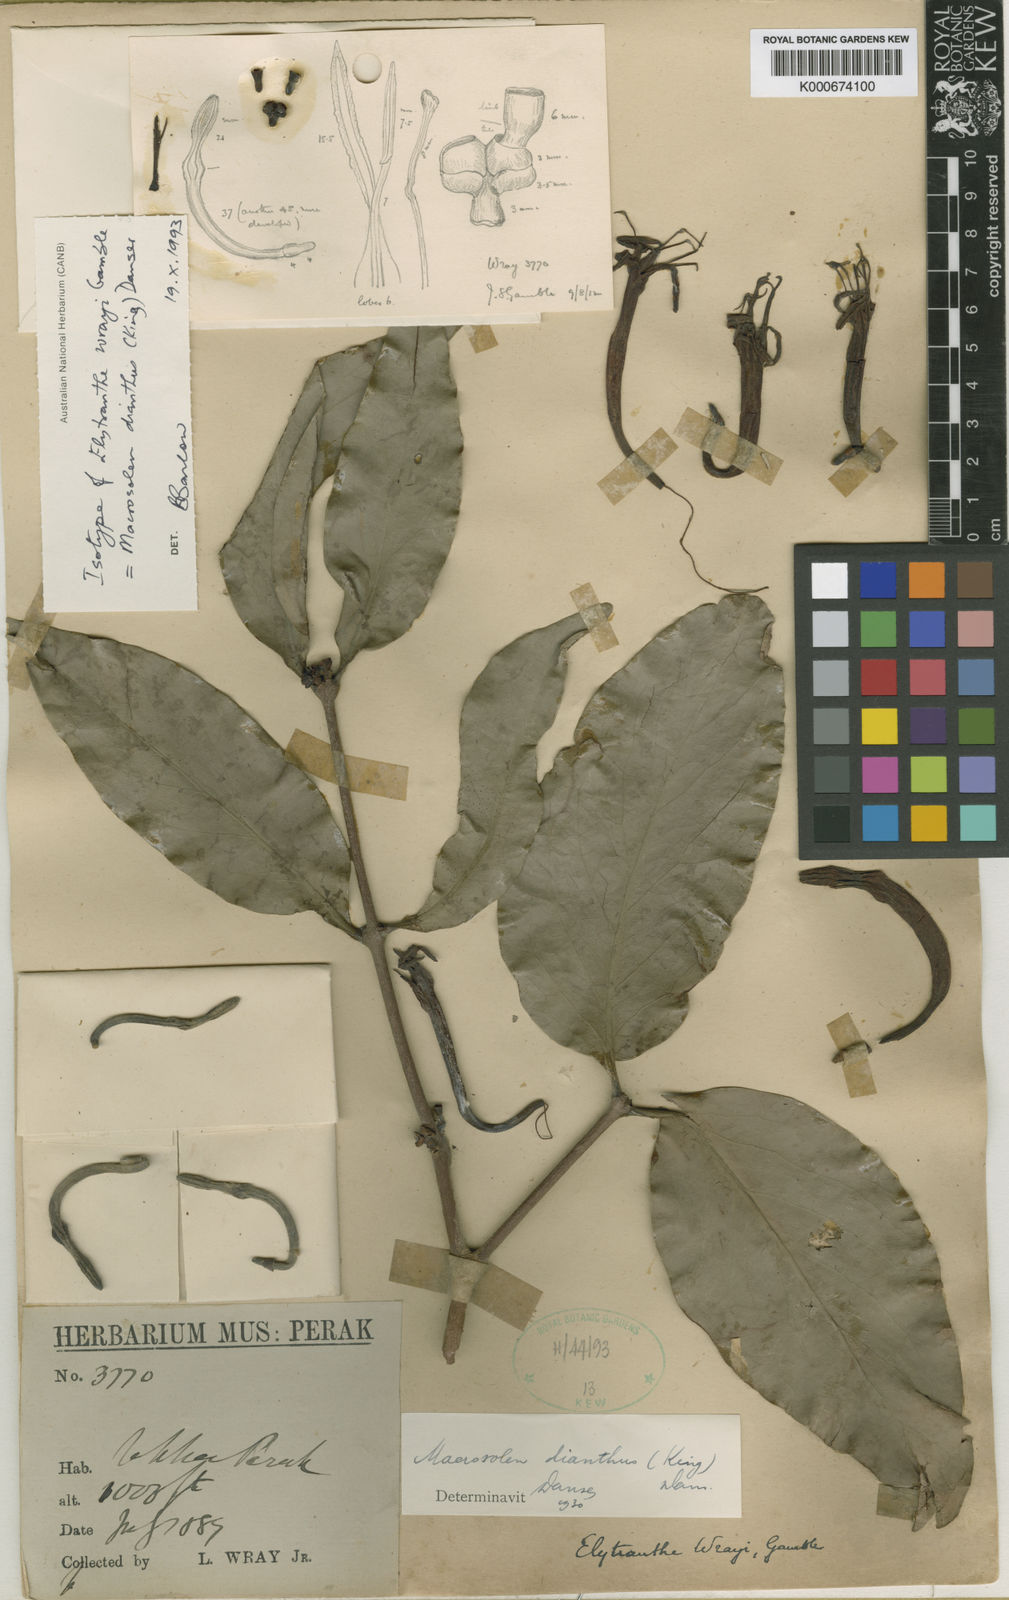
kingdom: Plantae
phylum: Tracheophyta
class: Magnoliopsida
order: Santalales
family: Loranthaceae
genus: Macrosolen
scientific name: Macrosolen dianthus
